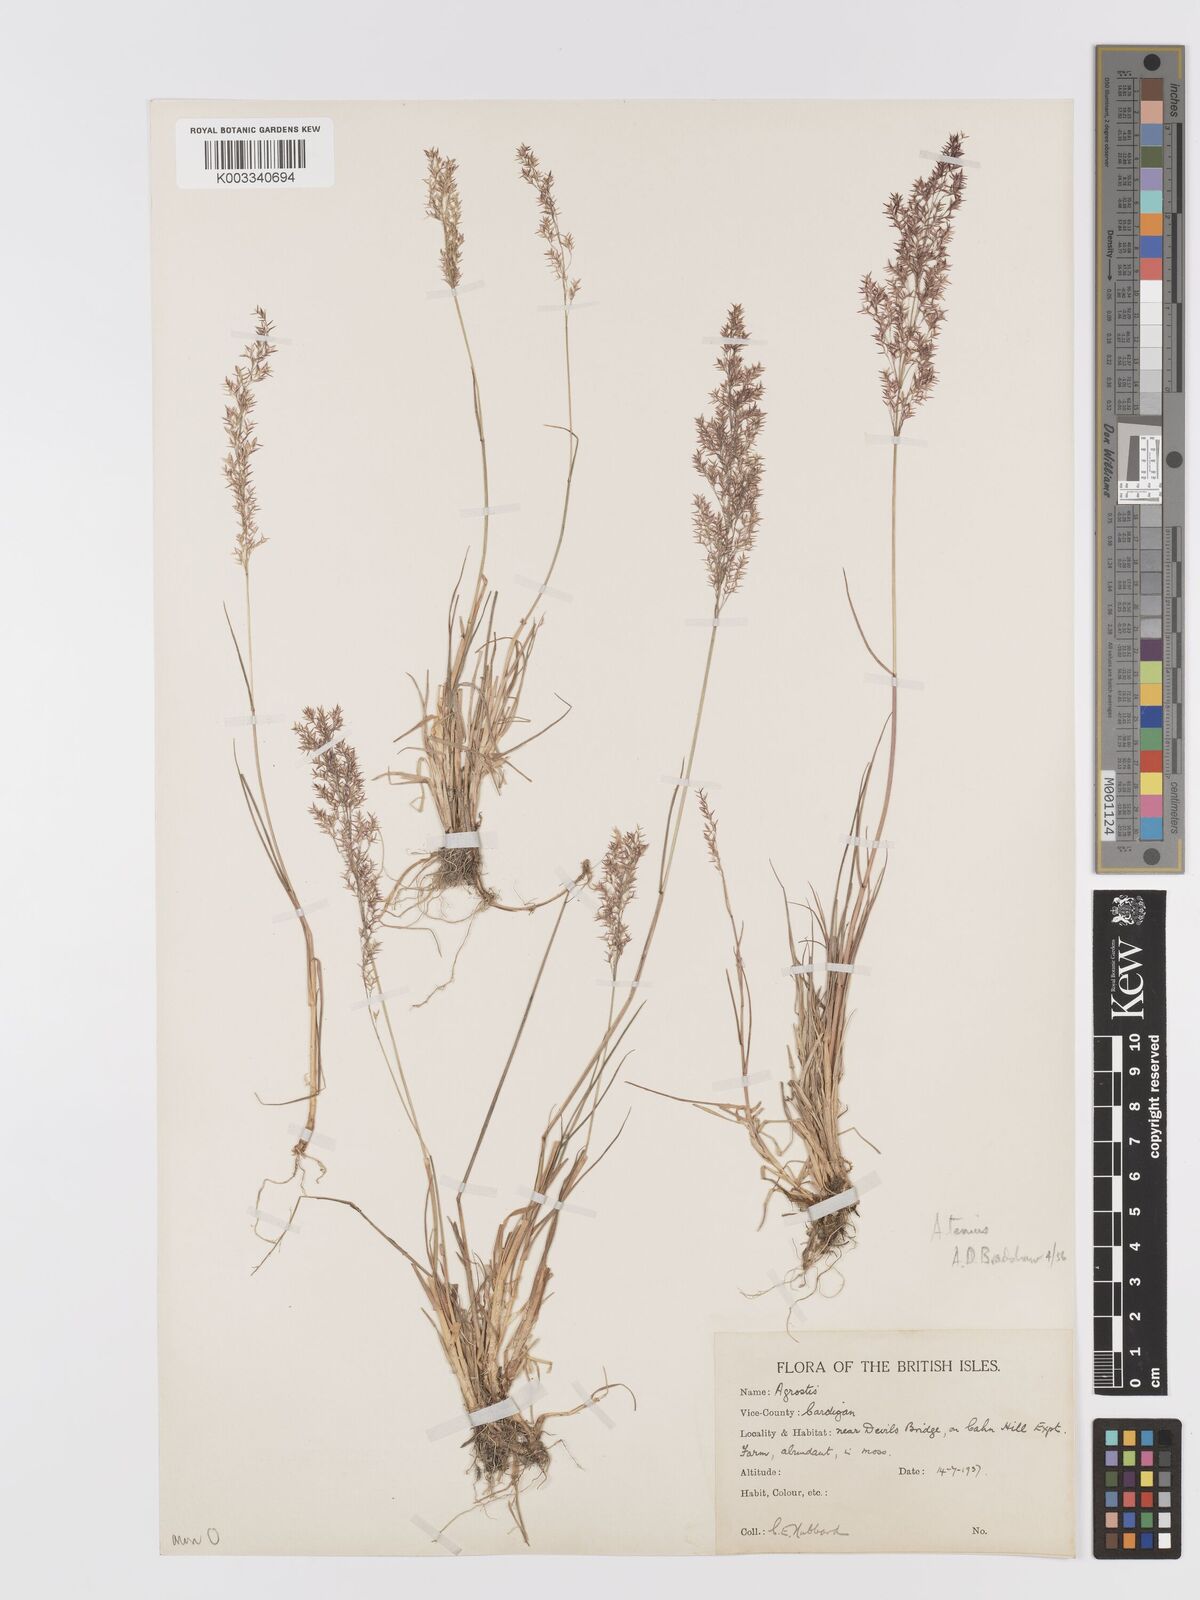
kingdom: Plantae
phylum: Tracheophyta
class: Liliopsida
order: Poales
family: Poaceae
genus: Agrostis
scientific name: Agrostis capillaris
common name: Colonial bentgrass
